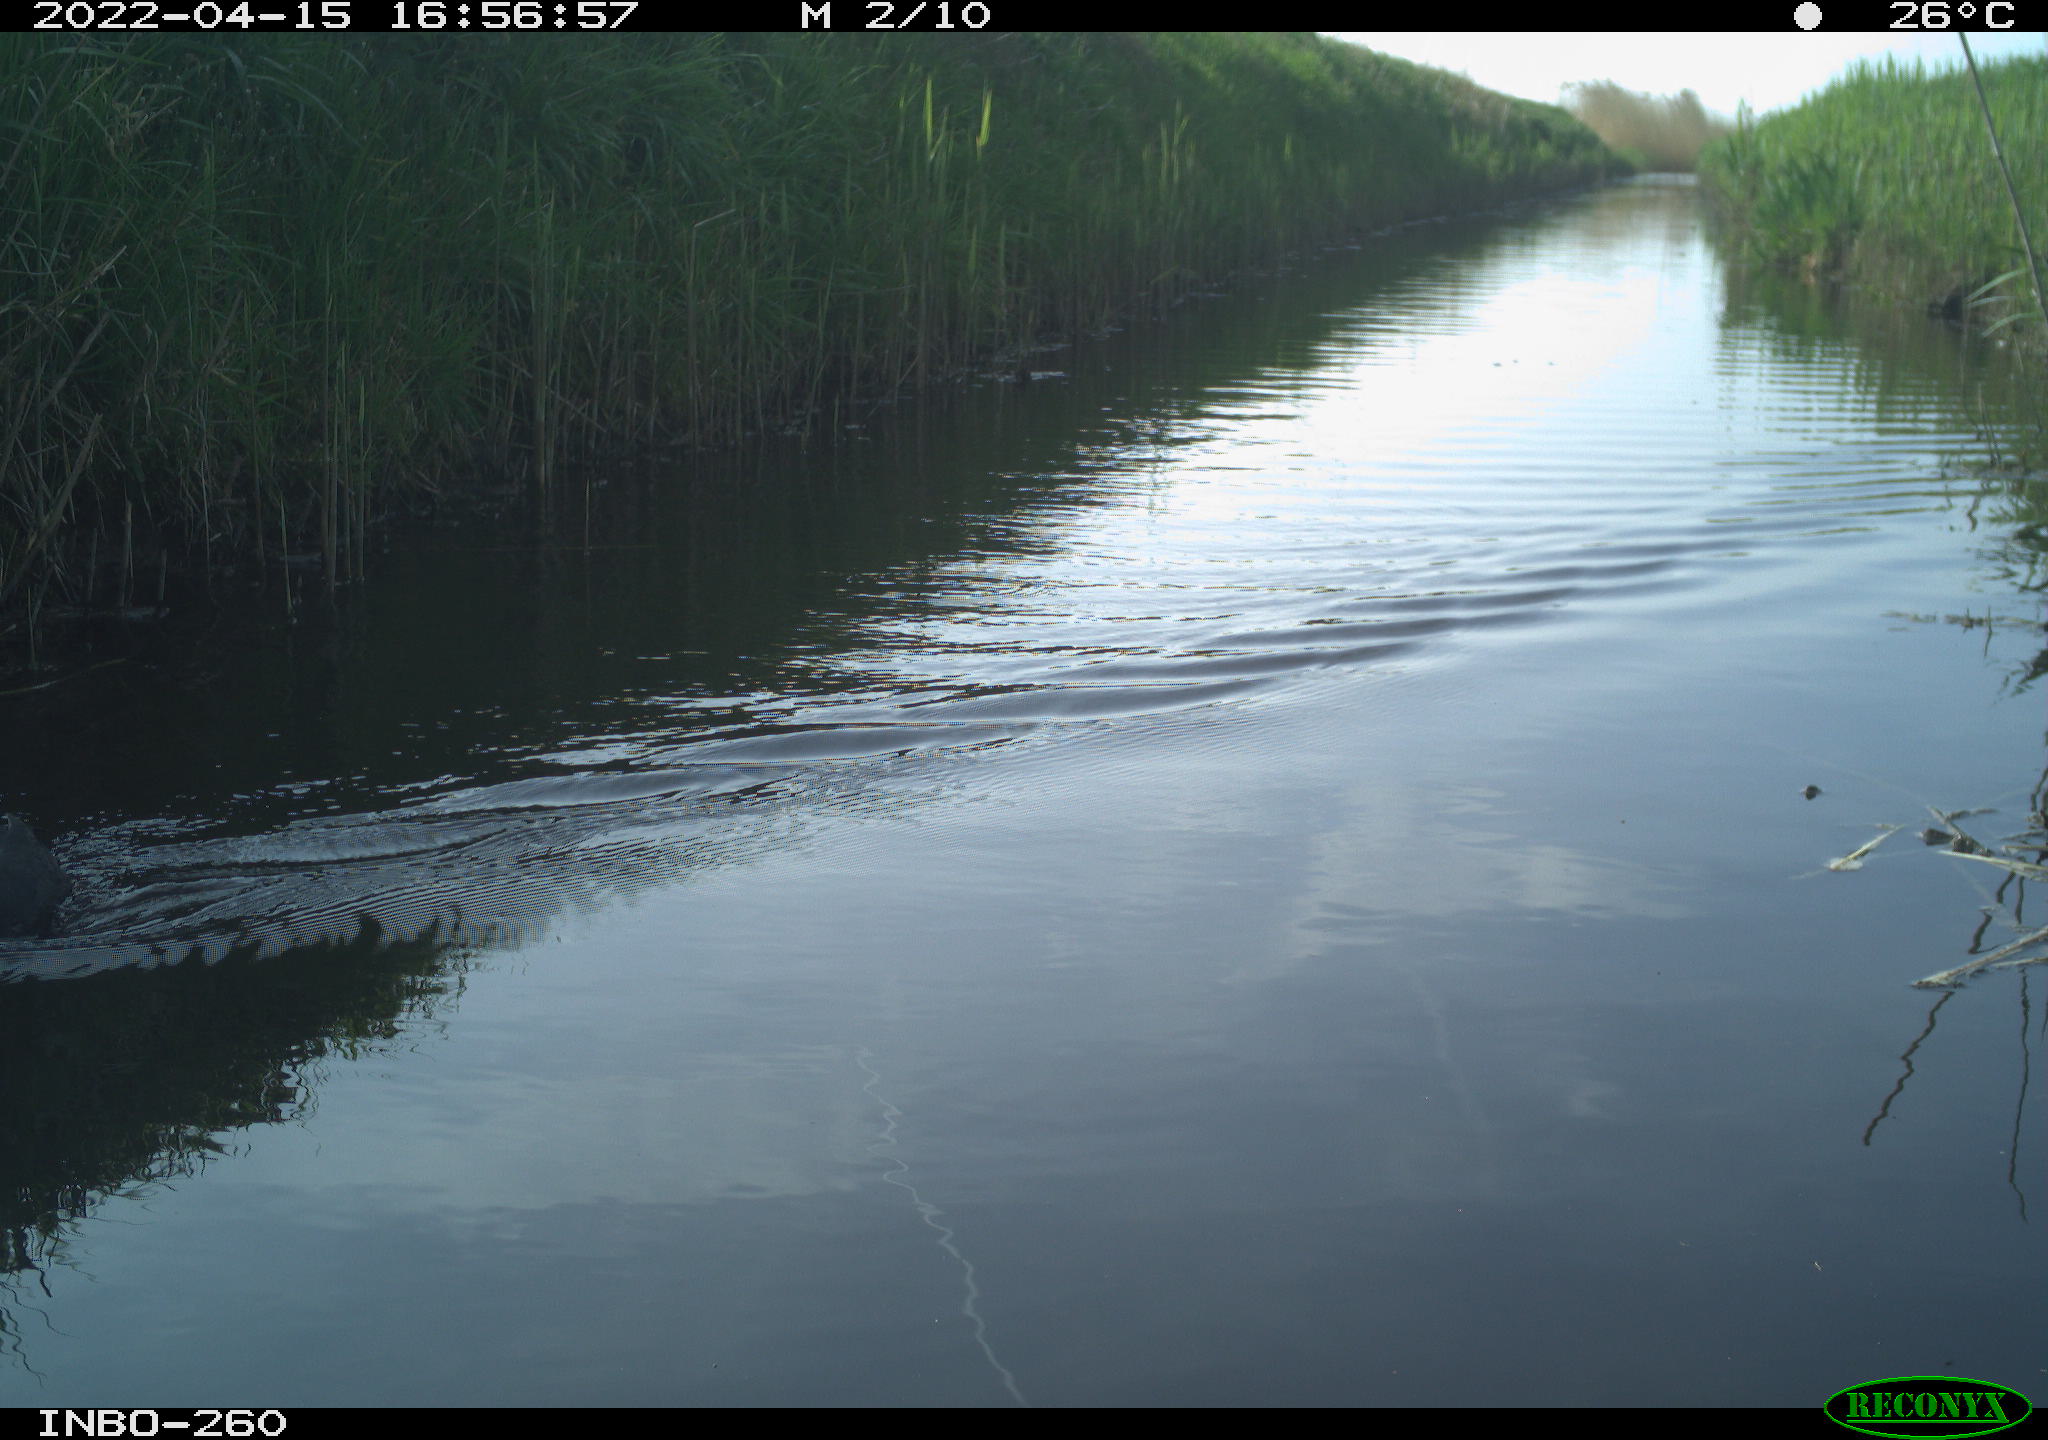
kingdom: Animalia
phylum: Chordata
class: Aves
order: Gruiformes
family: Rallidae
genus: Fulica
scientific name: Fulica atra
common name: Eurasian coot
